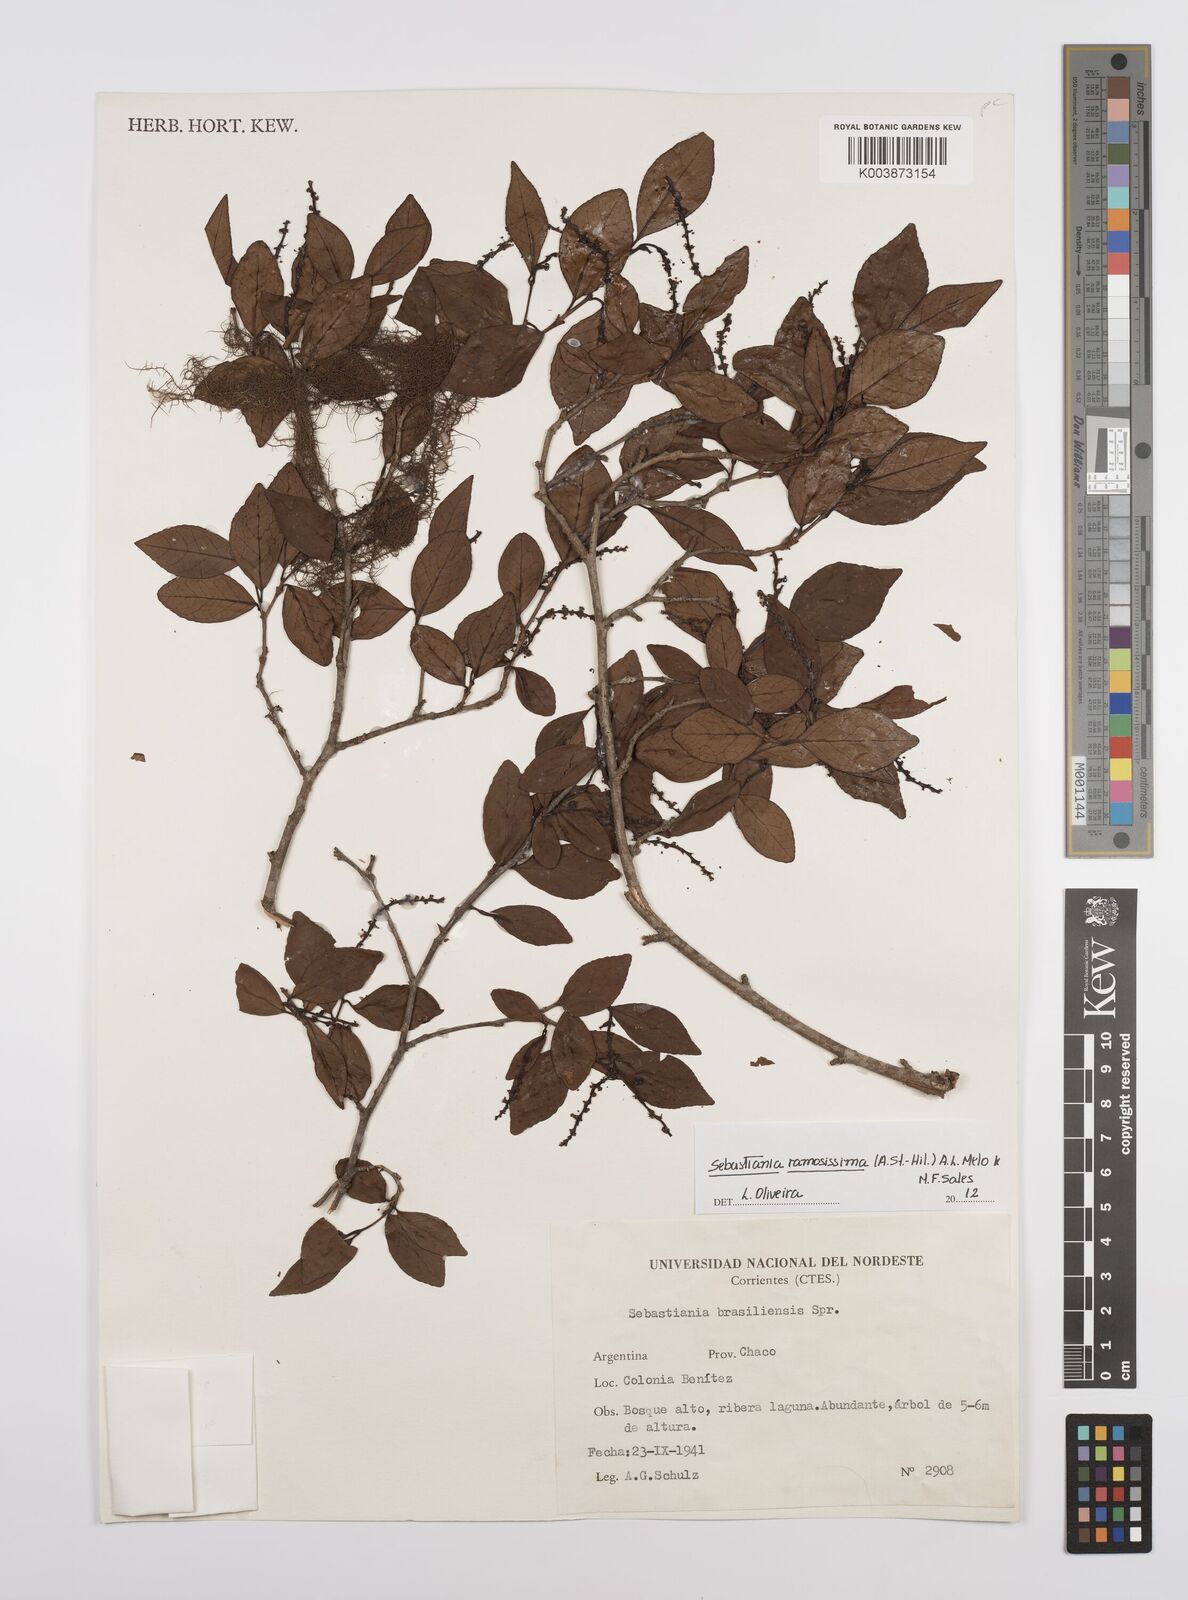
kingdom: Plantae
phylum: Tracheophyta
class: Magnoliopsida
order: Malpighiales
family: Euphorbiaceae
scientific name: Euphorbiaceae
